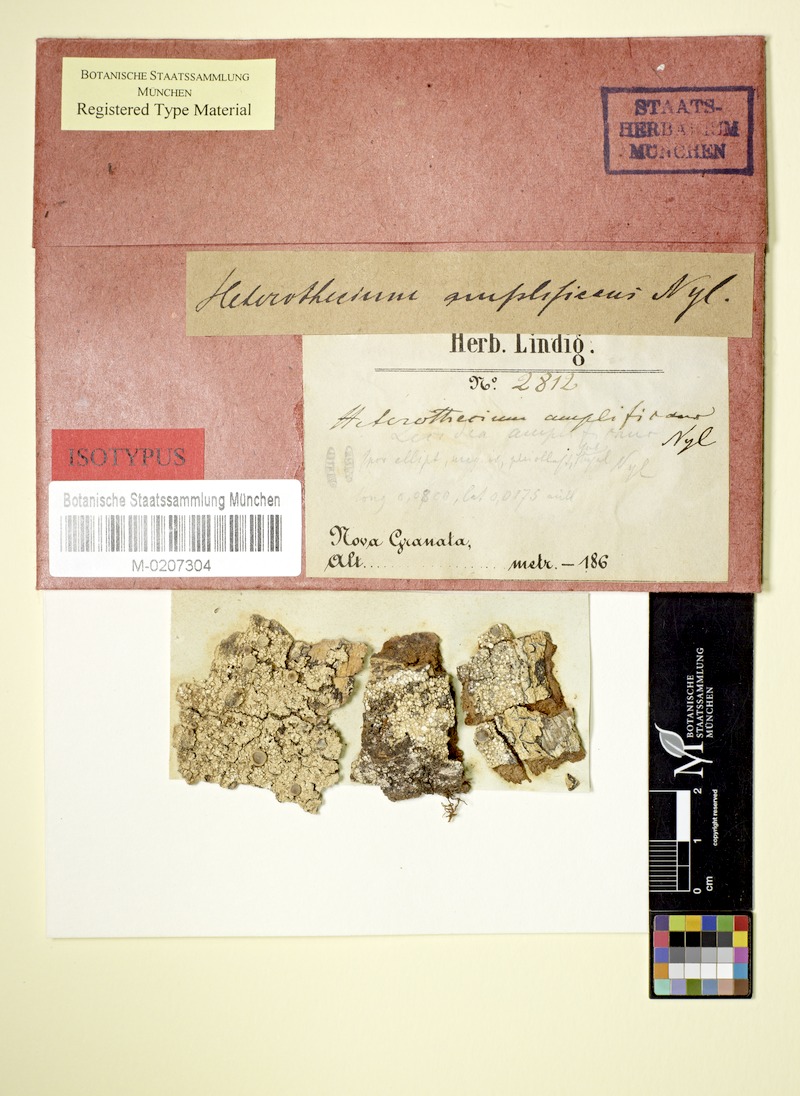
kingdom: Fungi
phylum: Ascomycota
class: Lecanoromycetes
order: Teloschistales
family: Megalosporaceae
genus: Megalospora
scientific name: Megalospora coccodes
